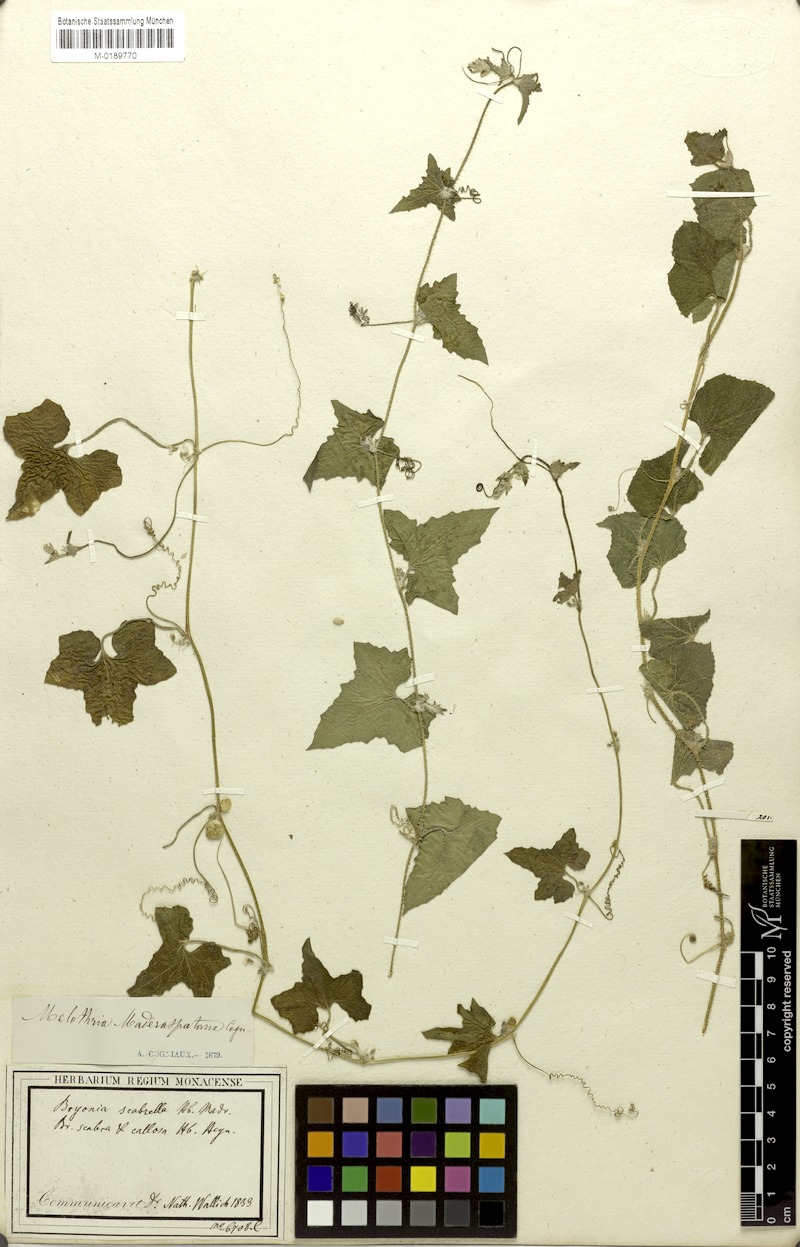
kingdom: Plantae
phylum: Tracheophyta
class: Magnoliopsida
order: Cucurbitales
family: Cucurbitaceae
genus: Cucumis
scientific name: Cucumis maderaspatanus
